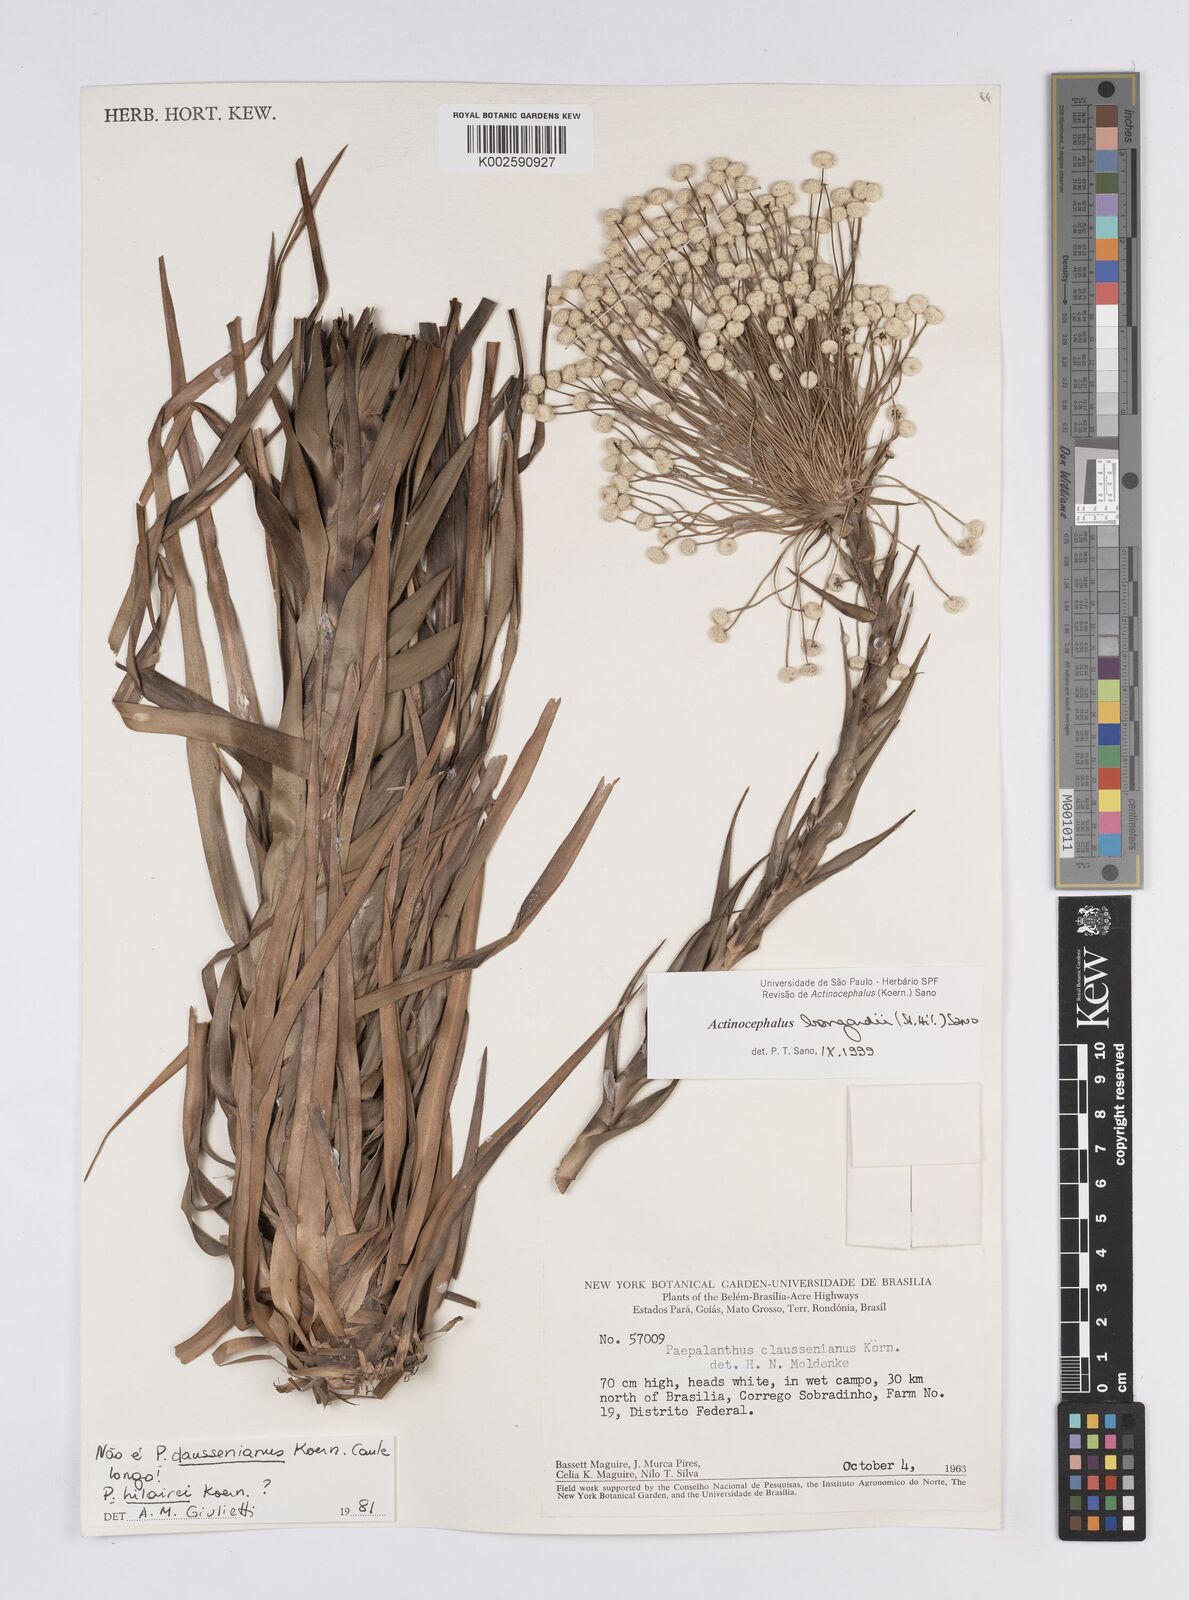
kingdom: Plantae
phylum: Tracheophyta
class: Liliopsida
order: Poales
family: Eriocaulaceae
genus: Paepalanthus
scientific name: Paepalanthus hilairei
